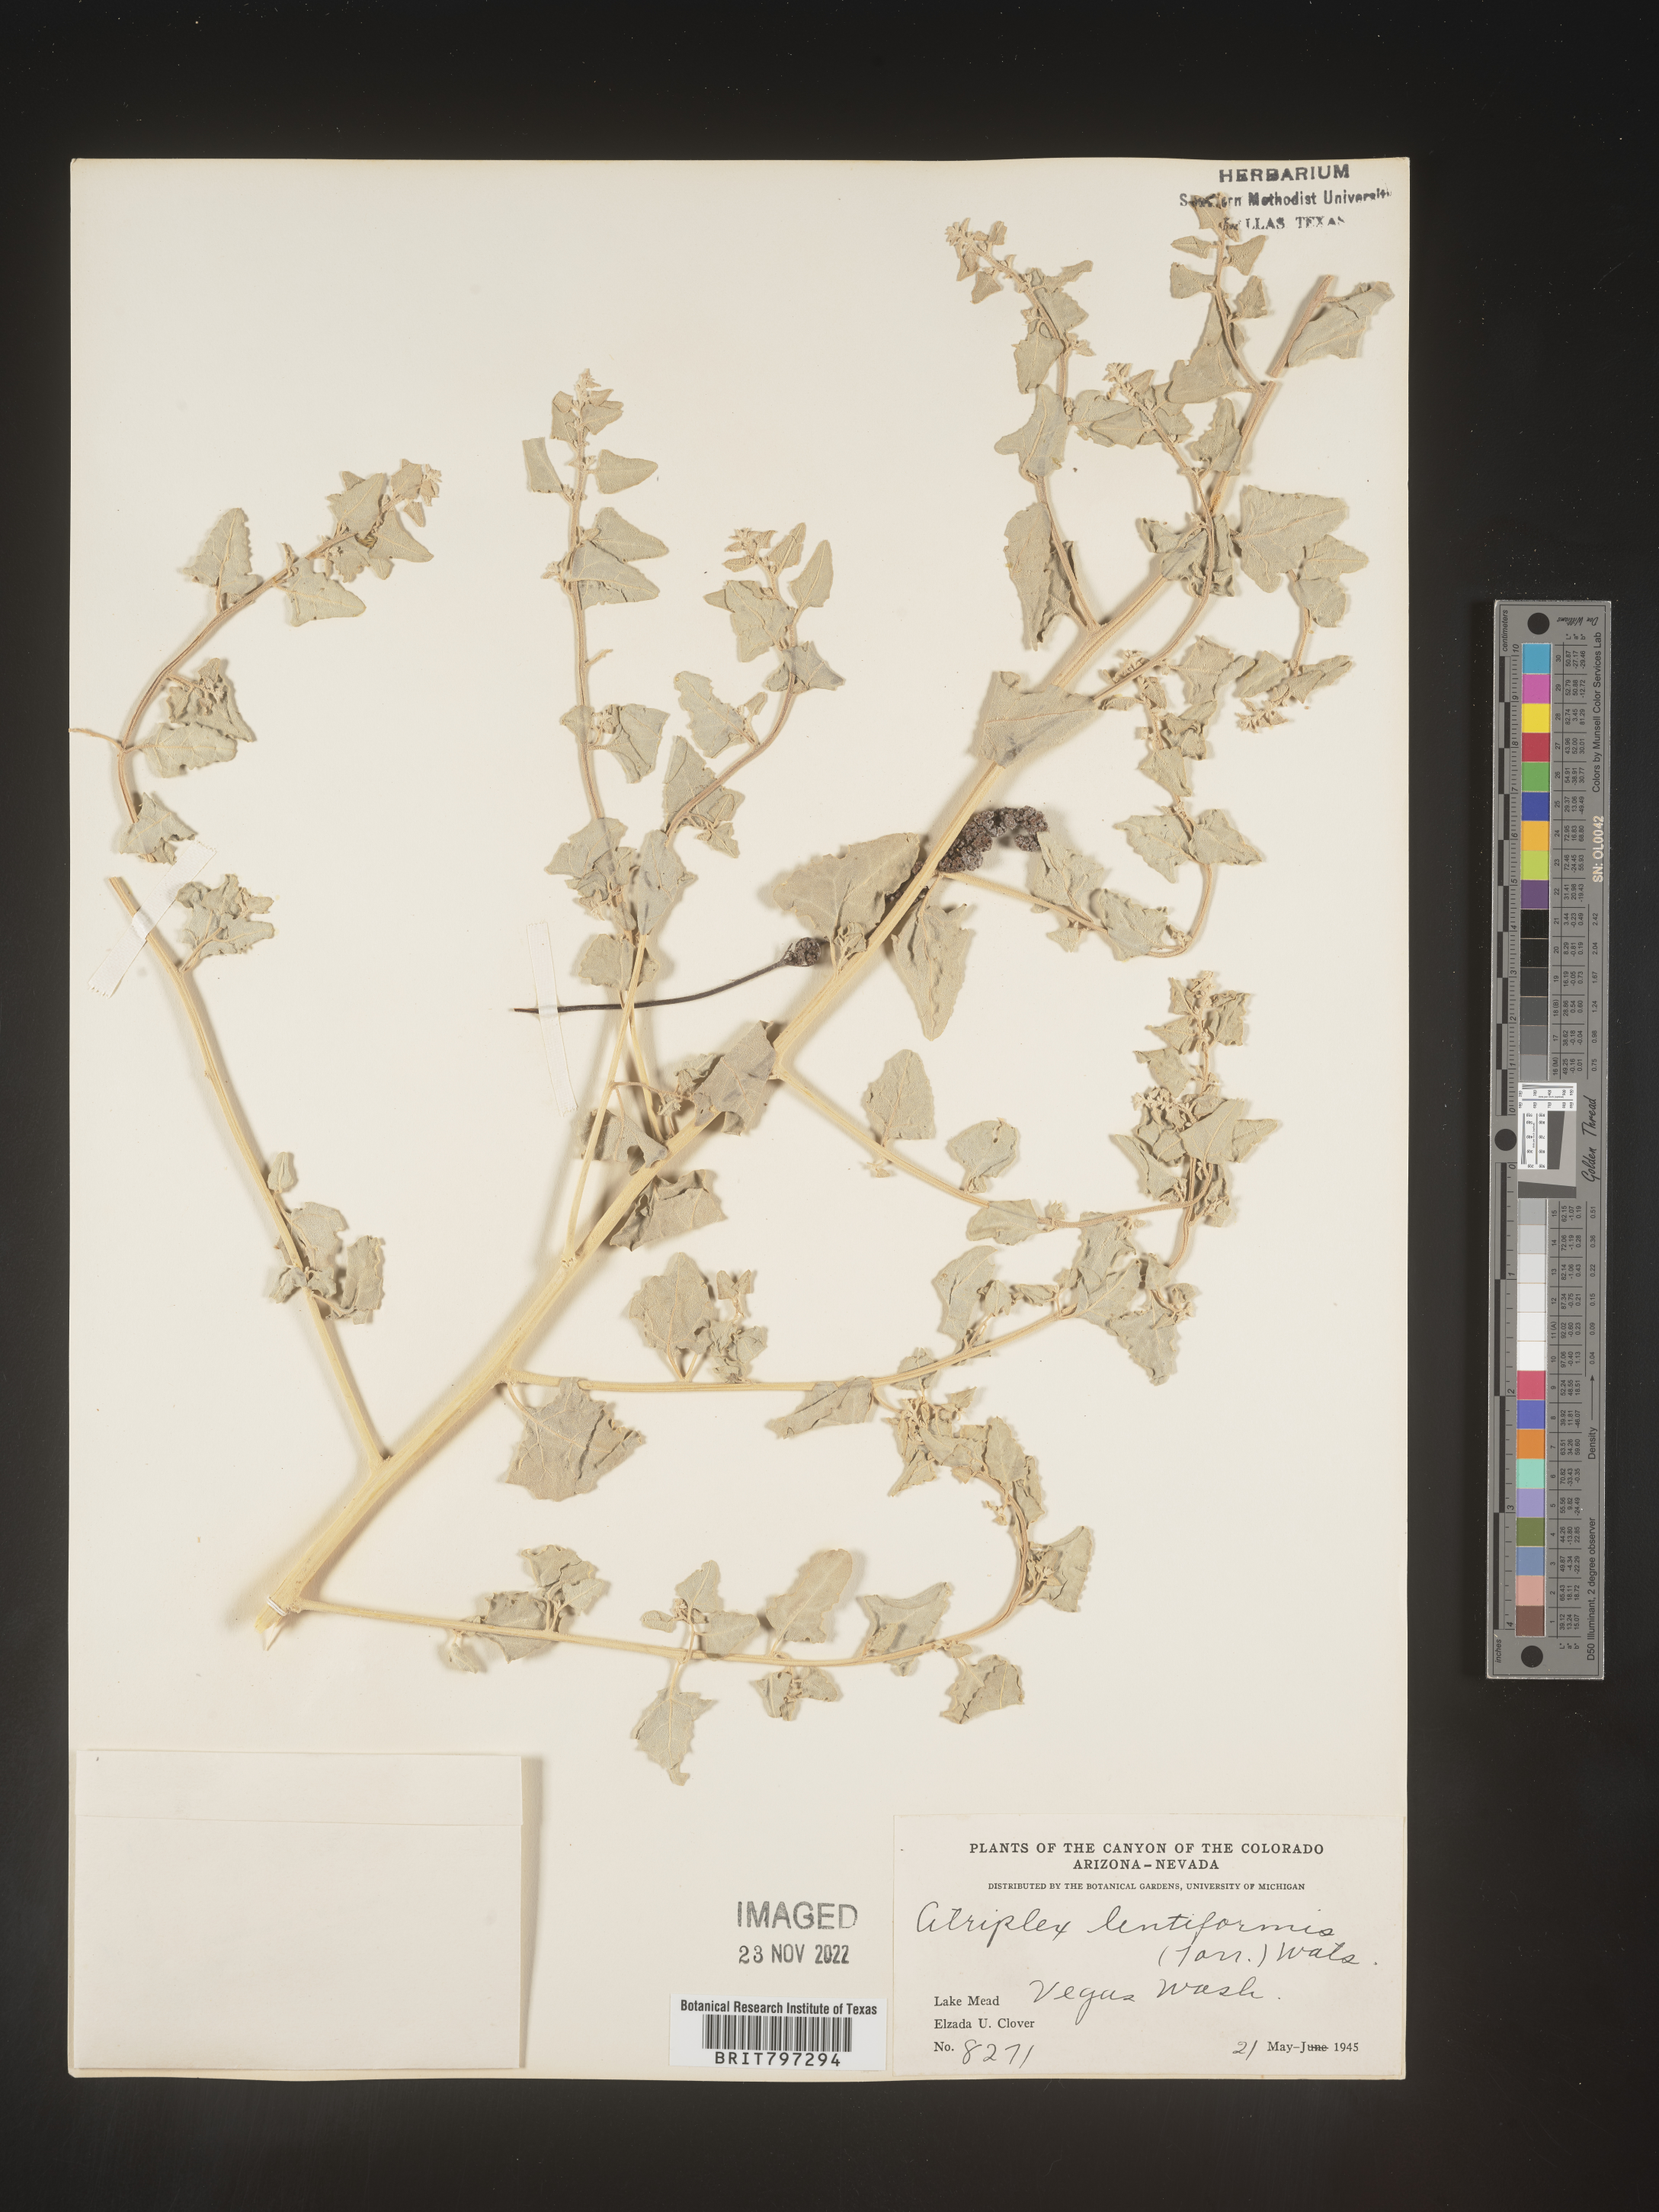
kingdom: Plantae
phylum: Tracheophyta
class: Magnoliopsida
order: Caryophyllales
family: Amaranthaceae
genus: Atriplex
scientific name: Atriplex
